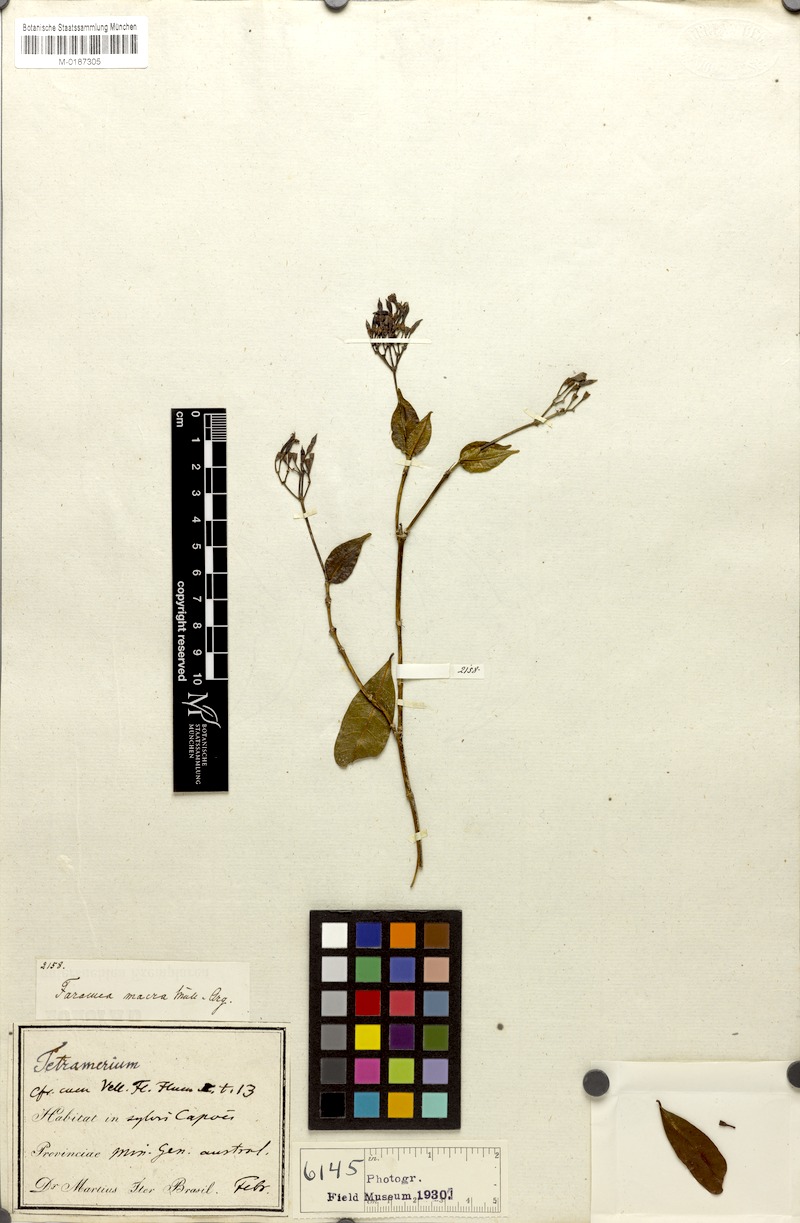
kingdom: Plantae
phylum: Tracheophyta
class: Magnoliopsida
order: Gentianales
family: Rubiaceae
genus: Faramea
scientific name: Faramea macra
